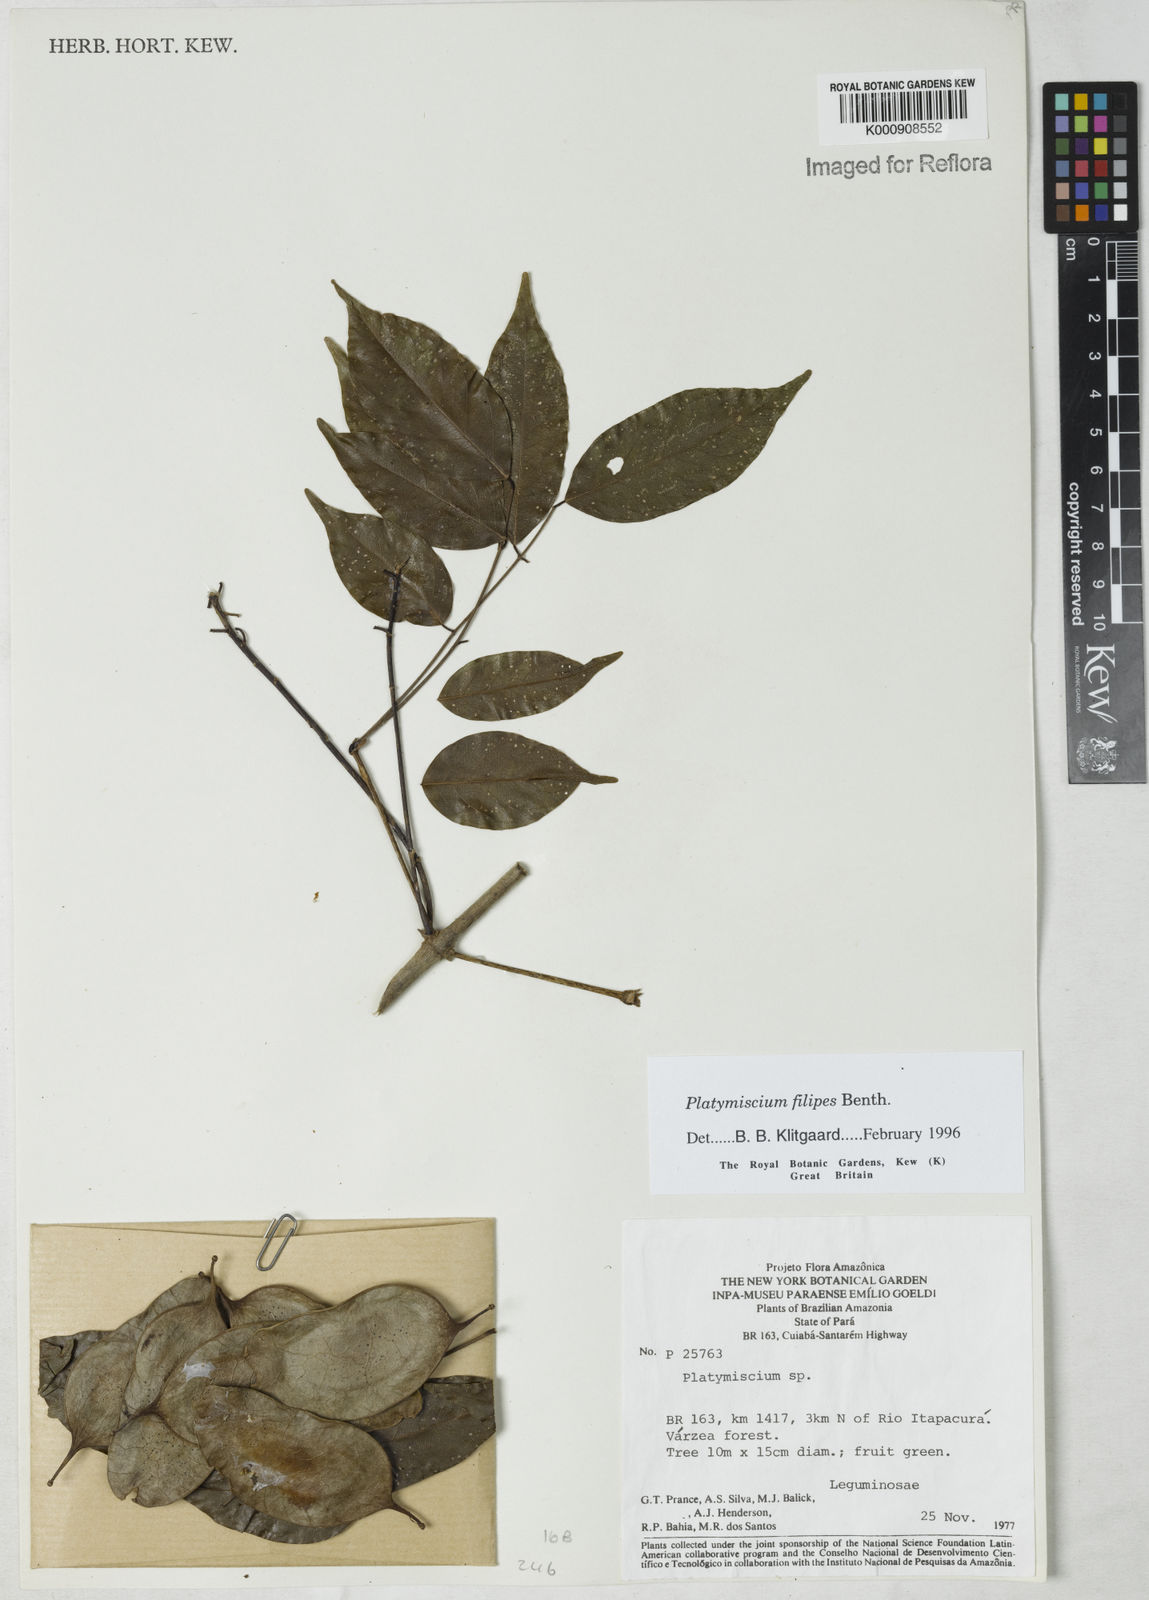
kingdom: Plantae
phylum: Tracheophyta
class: Magnoliopsida
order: Fabales
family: Fabaceae
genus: Platymiscium
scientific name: Platymiscium filipes
